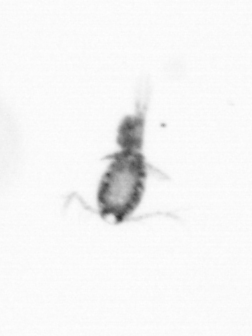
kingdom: Animalia
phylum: Arthropoda
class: Copepoda
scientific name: Copepoda
